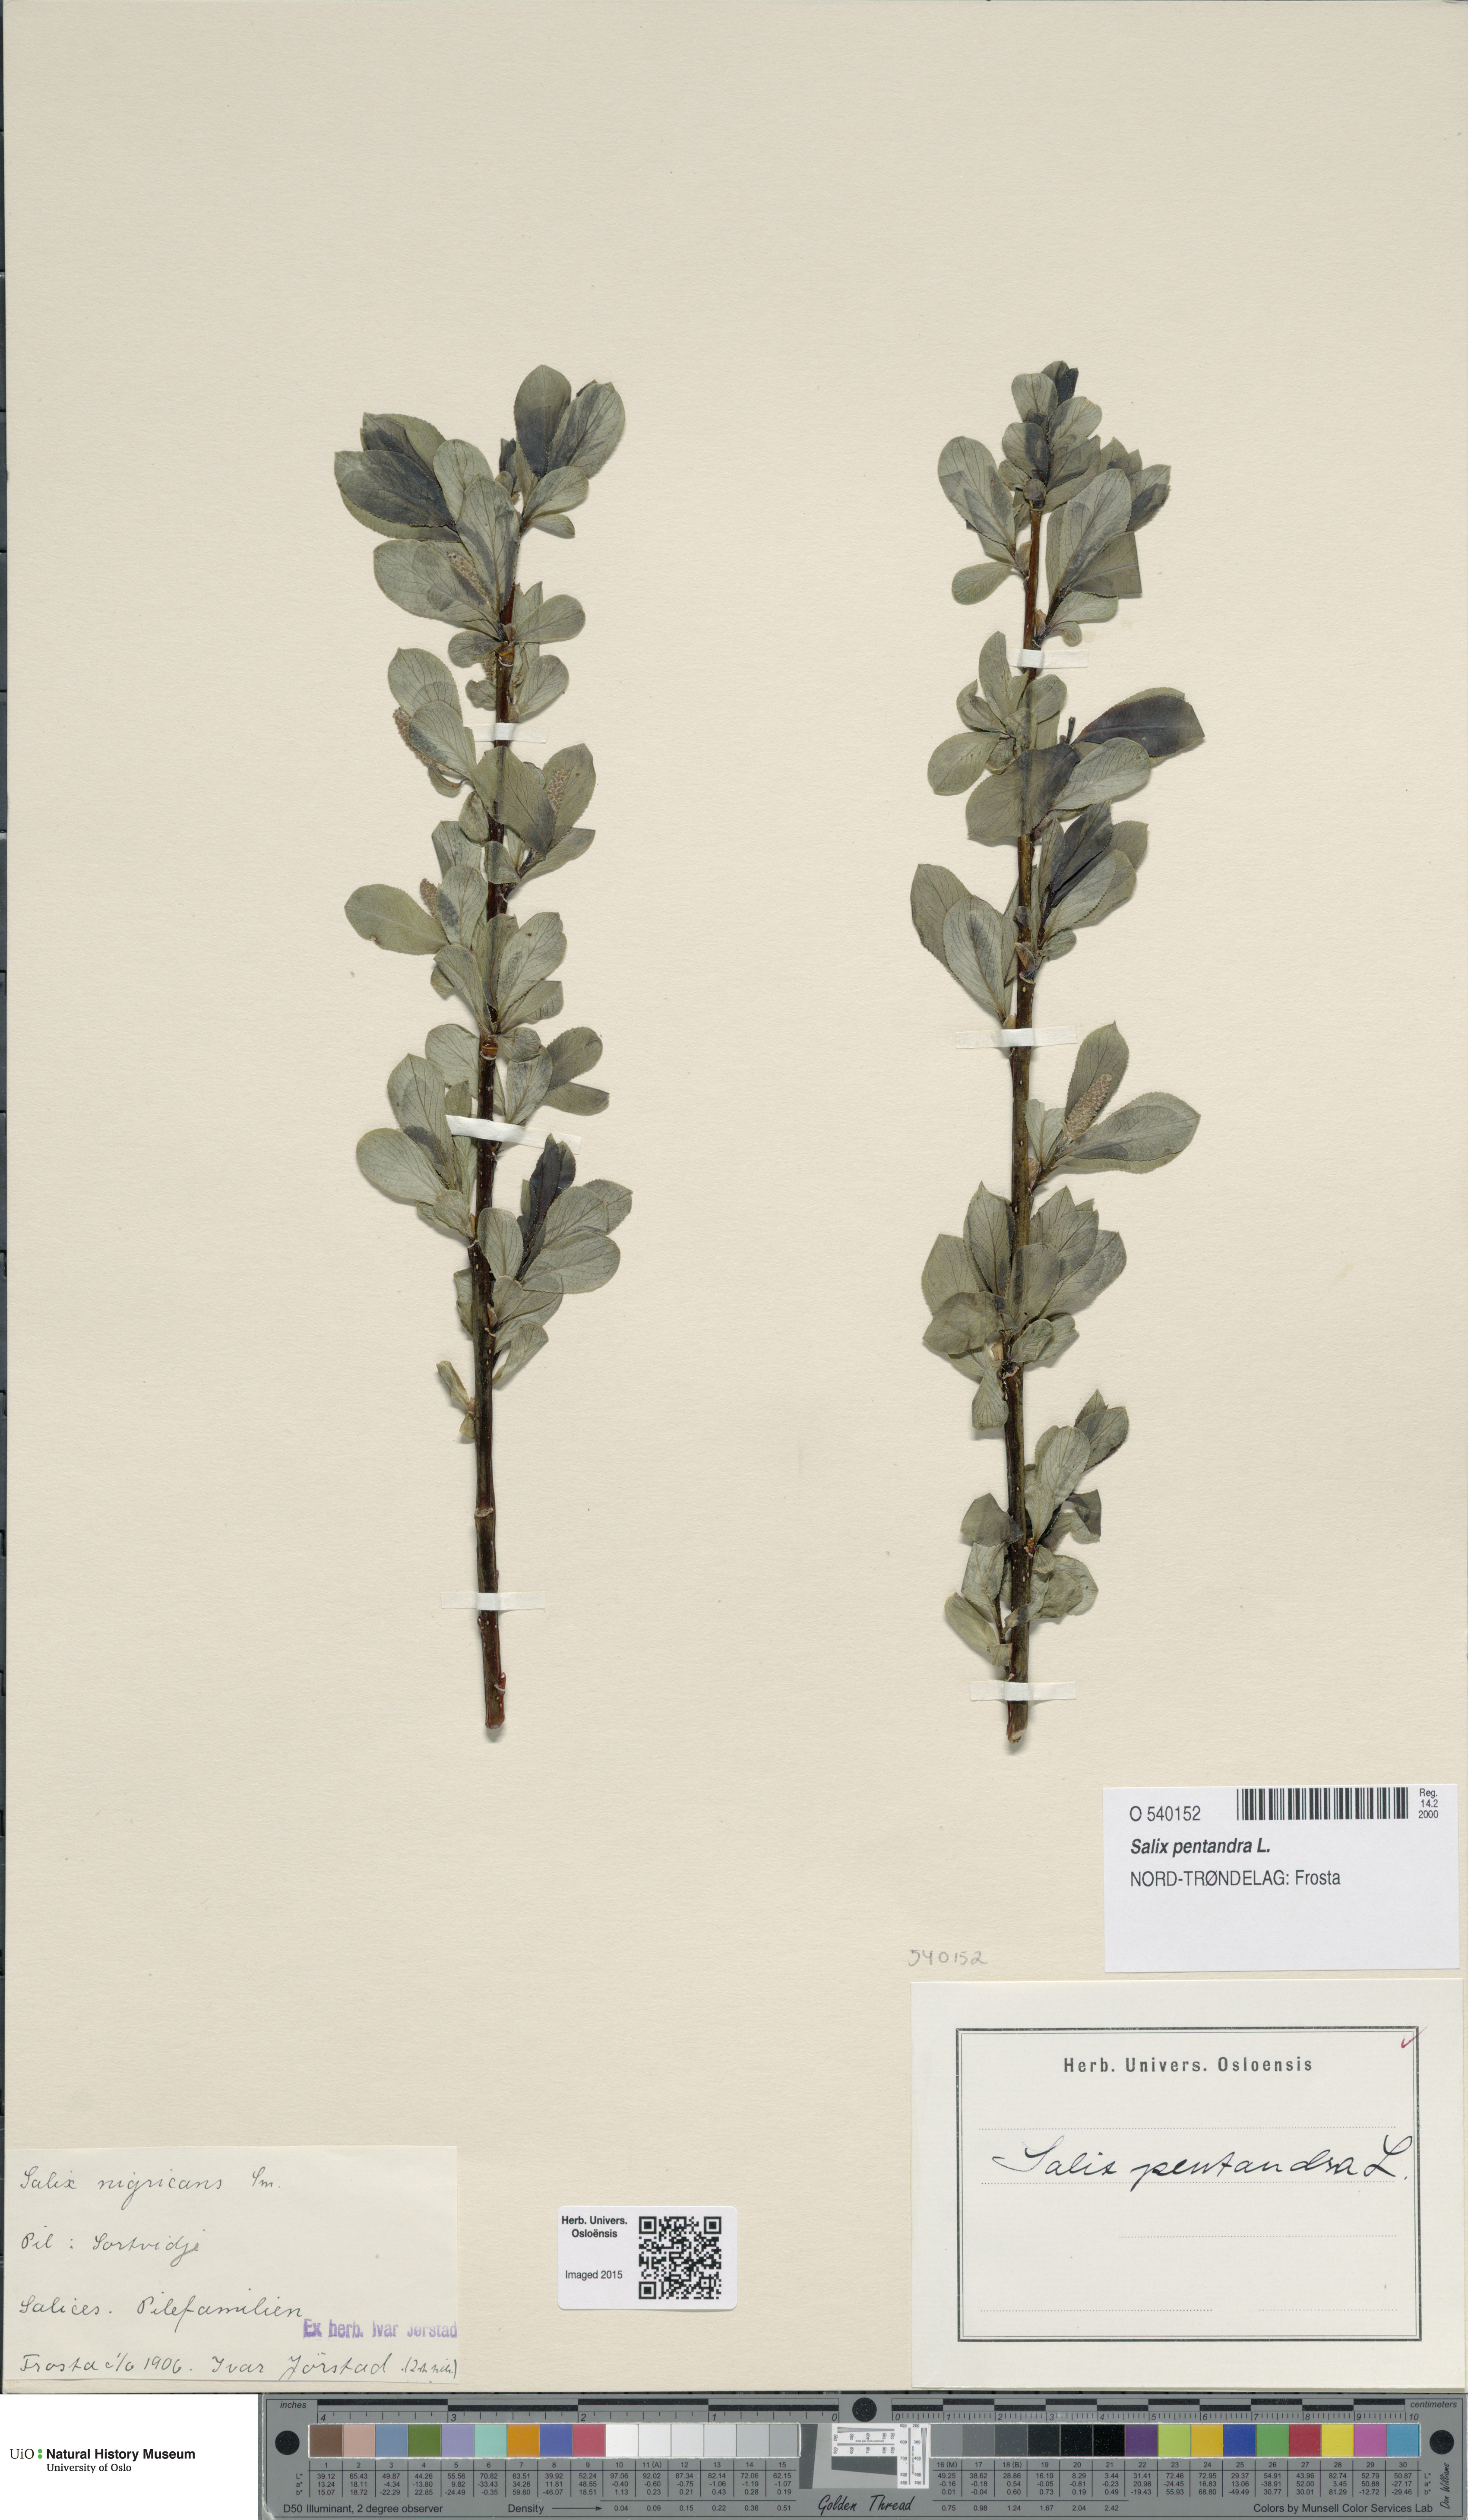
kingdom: Plantae
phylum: Tracheophyta
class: Magnoliopsida
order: Malpighiales
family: Salicaceae
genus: Salix
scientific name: Salix pentandra
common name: Bay willow
